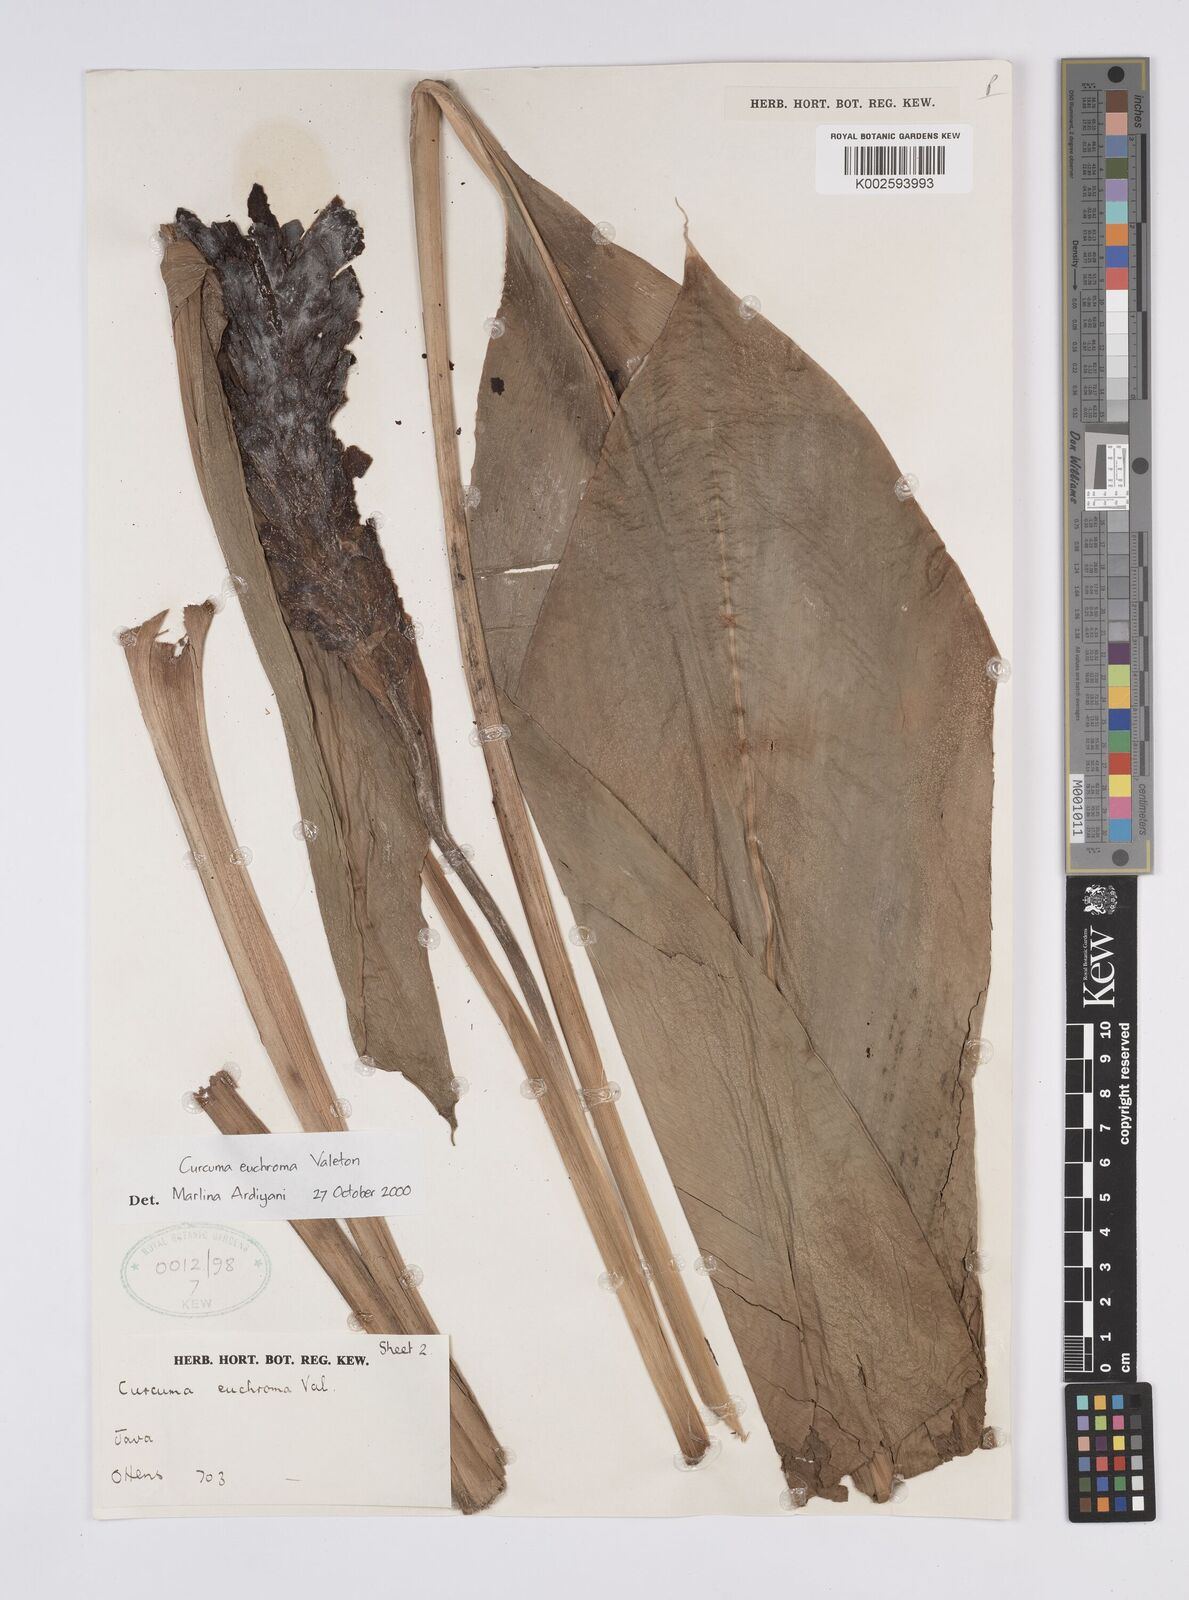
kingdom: Plantae
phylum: Tracheophyta
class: Liliopsida
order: Zingiberales
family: Zingiberaceae
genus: Curcuma
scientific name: Curcuma euchroma
